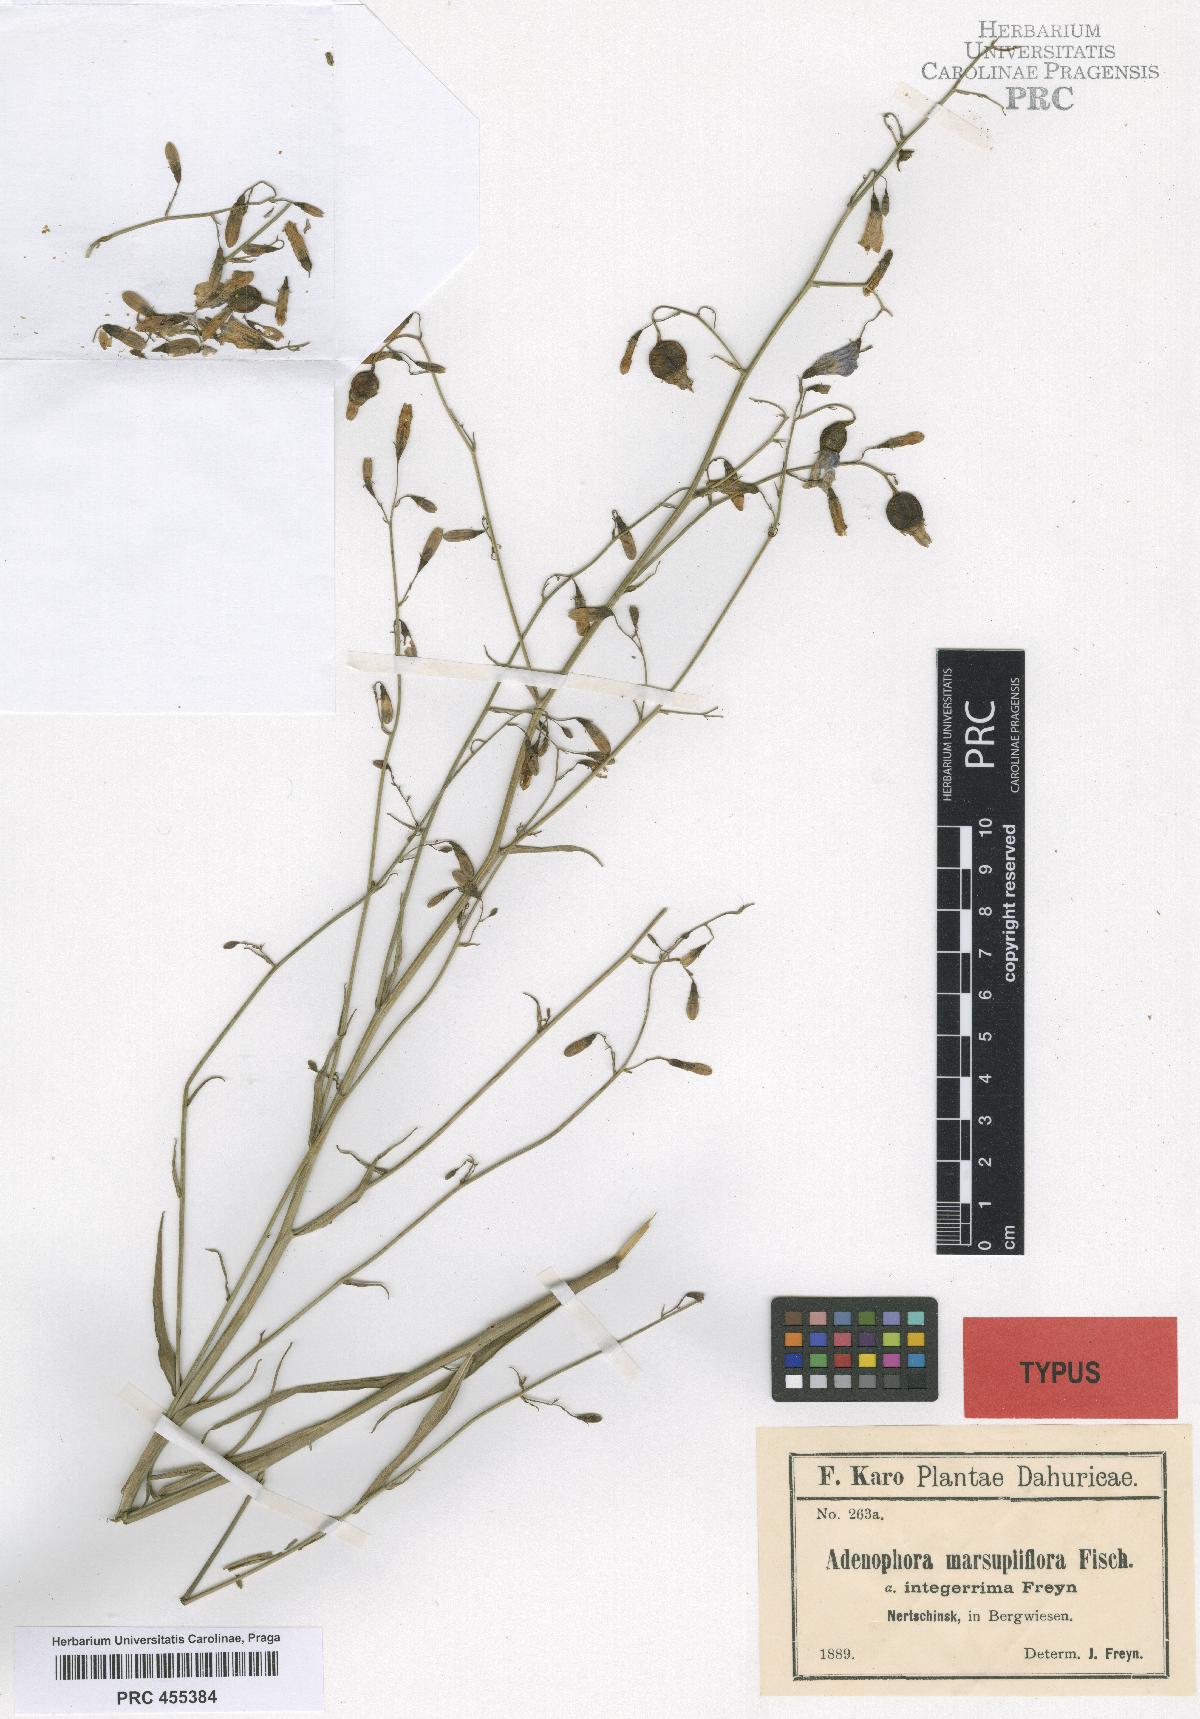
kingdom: Plantae
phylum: Tracheophyta
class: Magnoliopsida
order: Asterales
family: Campanulaceae
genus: Adenophora
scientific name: Adenophora stenanthina
